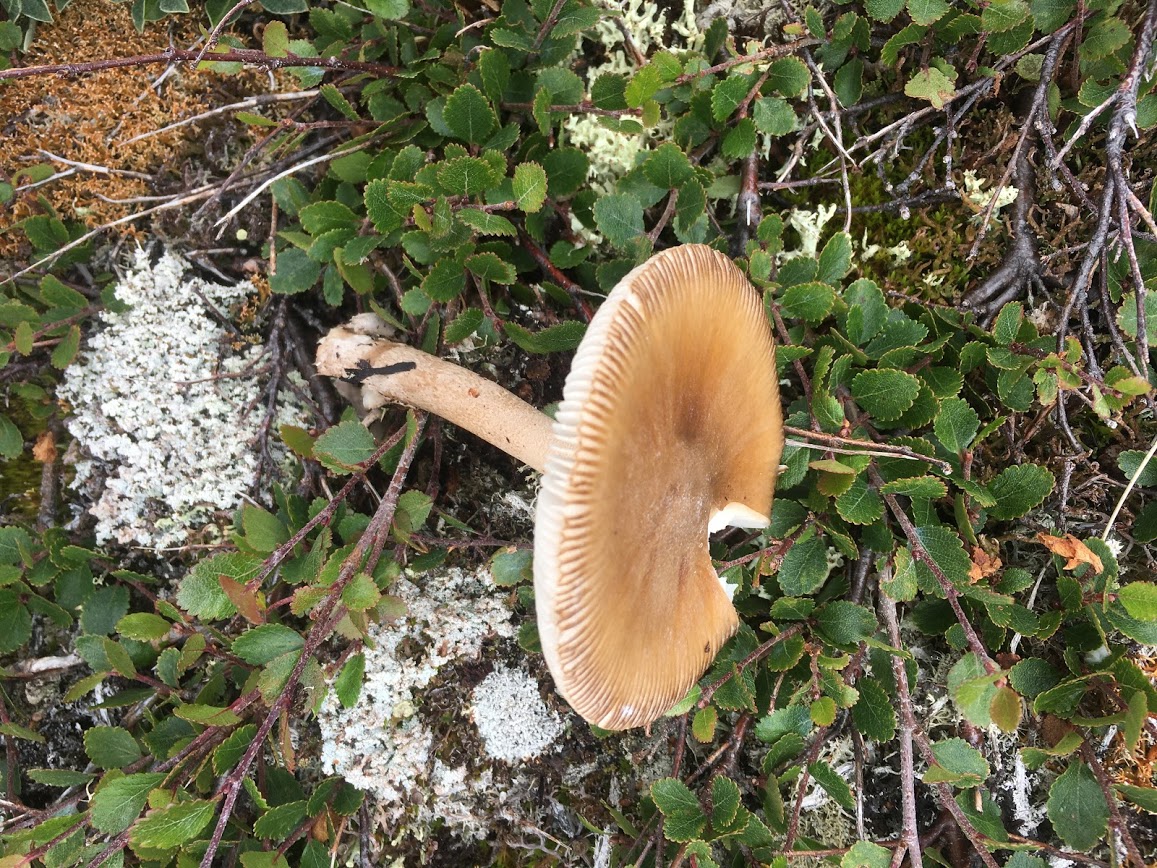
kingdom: Fungi
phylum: Basidiomycota
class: Agaricomycetes
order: Agaricales
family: Amanitaceae
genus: Amanita
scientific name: Amanita fulva
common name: brun kam-fluesvamp
